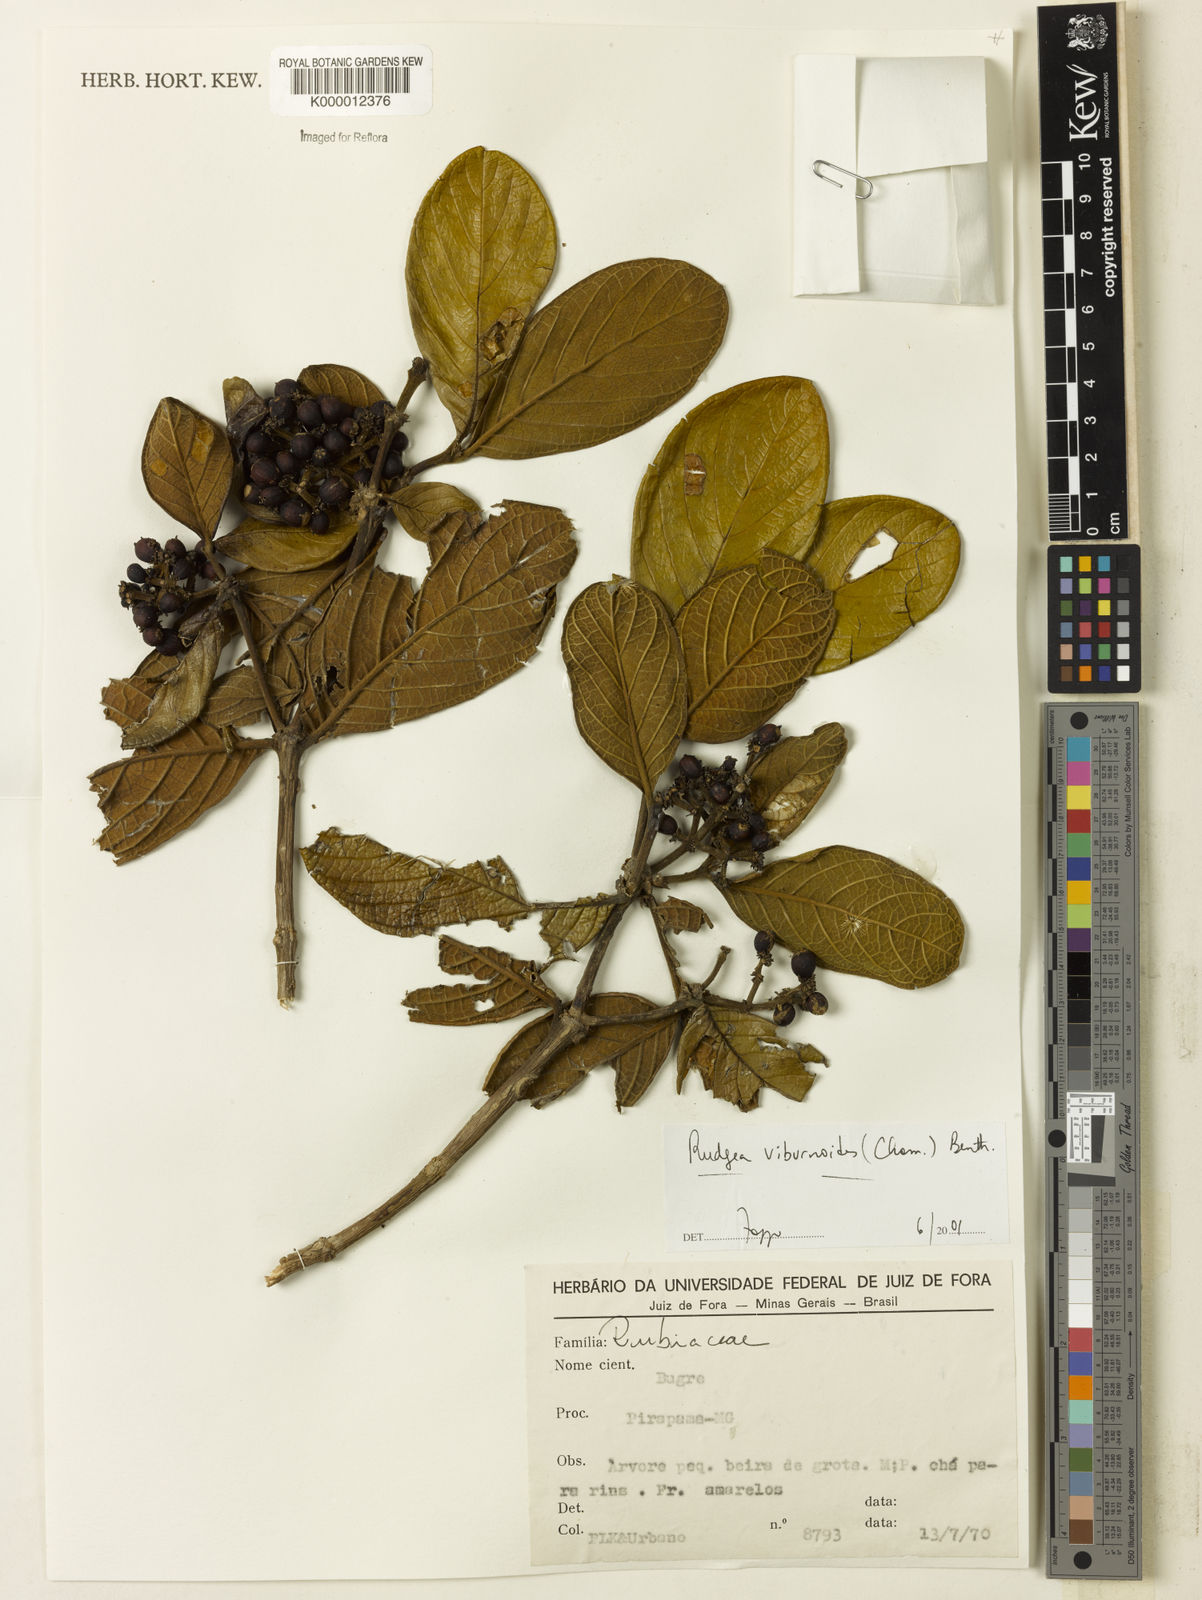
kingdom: Plantae
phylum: Tracheophyta
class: Magnoliopsida
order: Gentianales
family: Rubiaceae
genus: Rudgea
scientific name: Rudgea viburnoides
